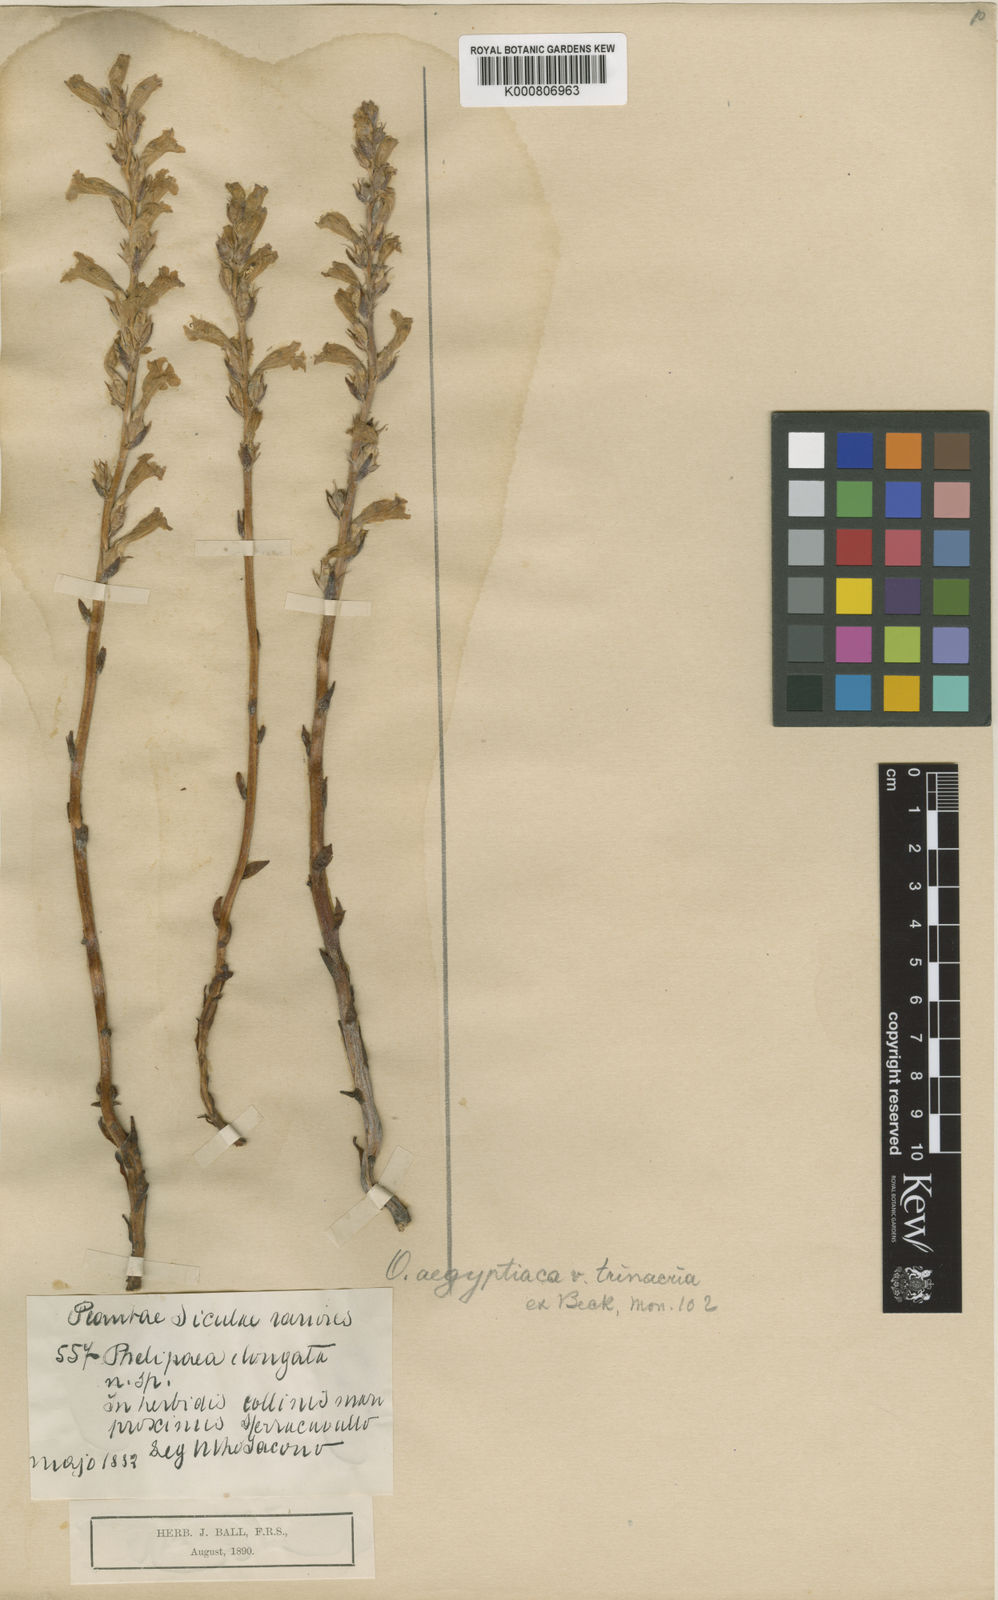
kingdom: Plantae
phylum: Tracheophyta
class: Magnoliopsida
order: Lamiales
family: Orobanchaceae
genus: Phelipanche
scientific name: Phelipanche aegyptiaca
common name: Egyptian broomrape
